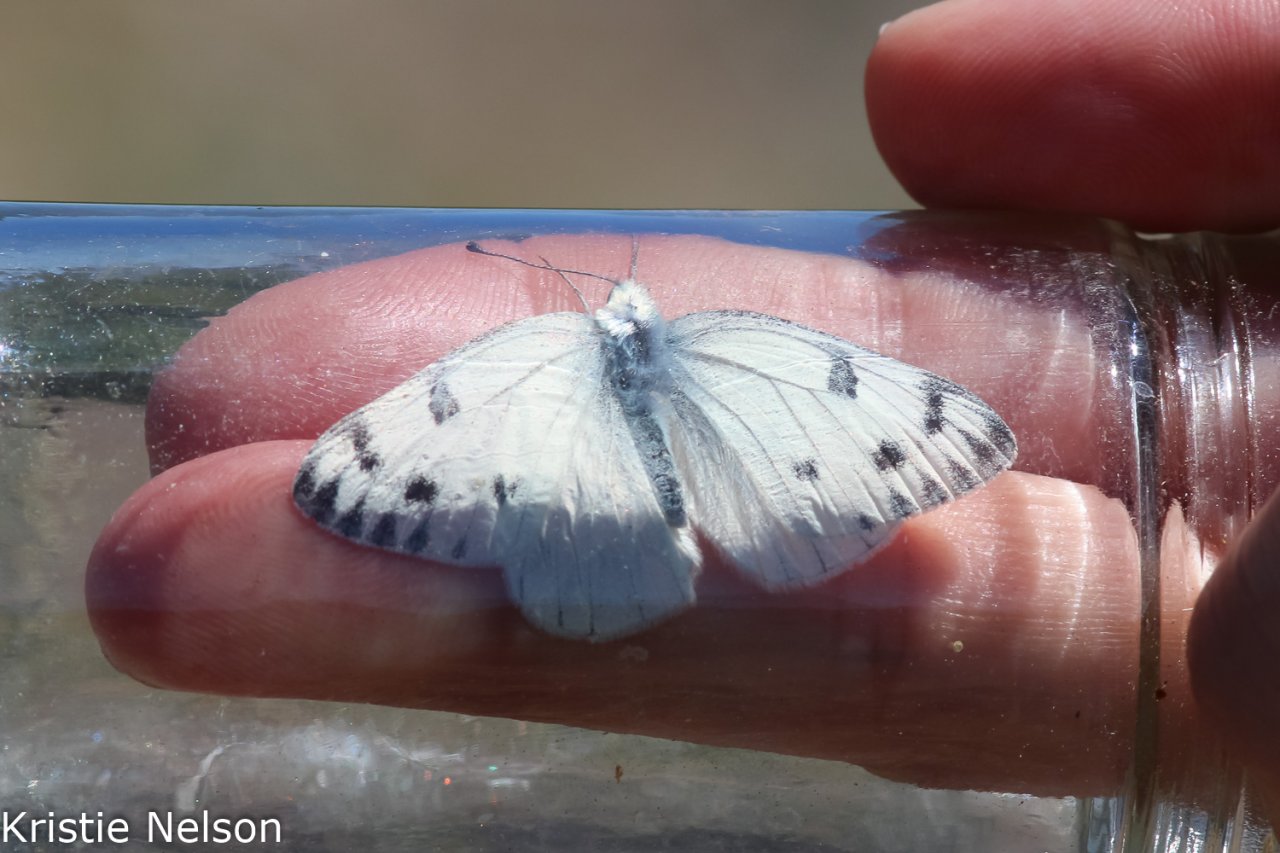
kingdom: Animalia
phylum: Arthropoda
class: Insecta
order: Lepidoptera
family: Pieridae
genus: Pontia
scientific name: Pontia protodice
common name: Checkered White
